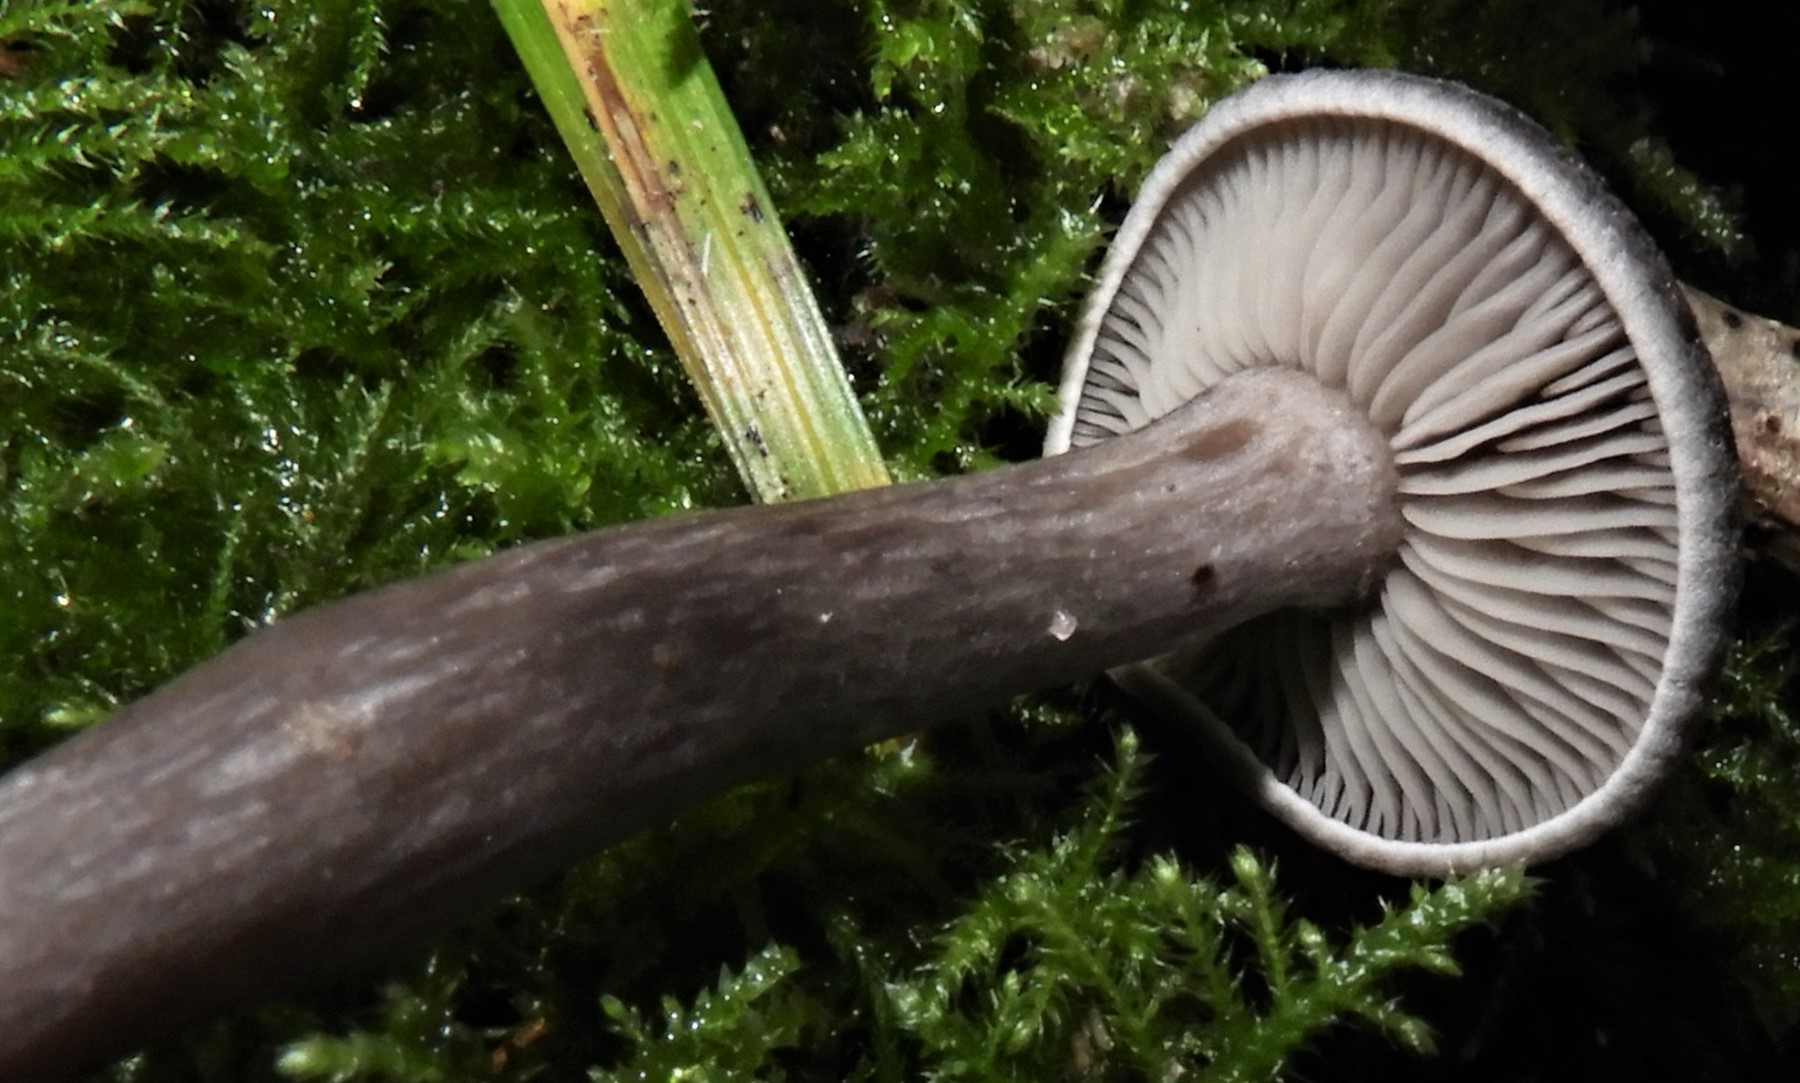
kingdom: Fungi
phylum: Basidiomycota
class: Agaricomycetes
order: Agaricales
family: Pseudoclitocybaceae
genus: Pseudoclitocybe
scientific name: Pseudoclitocybe cyathiformis
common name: almindelig bægertragthat
